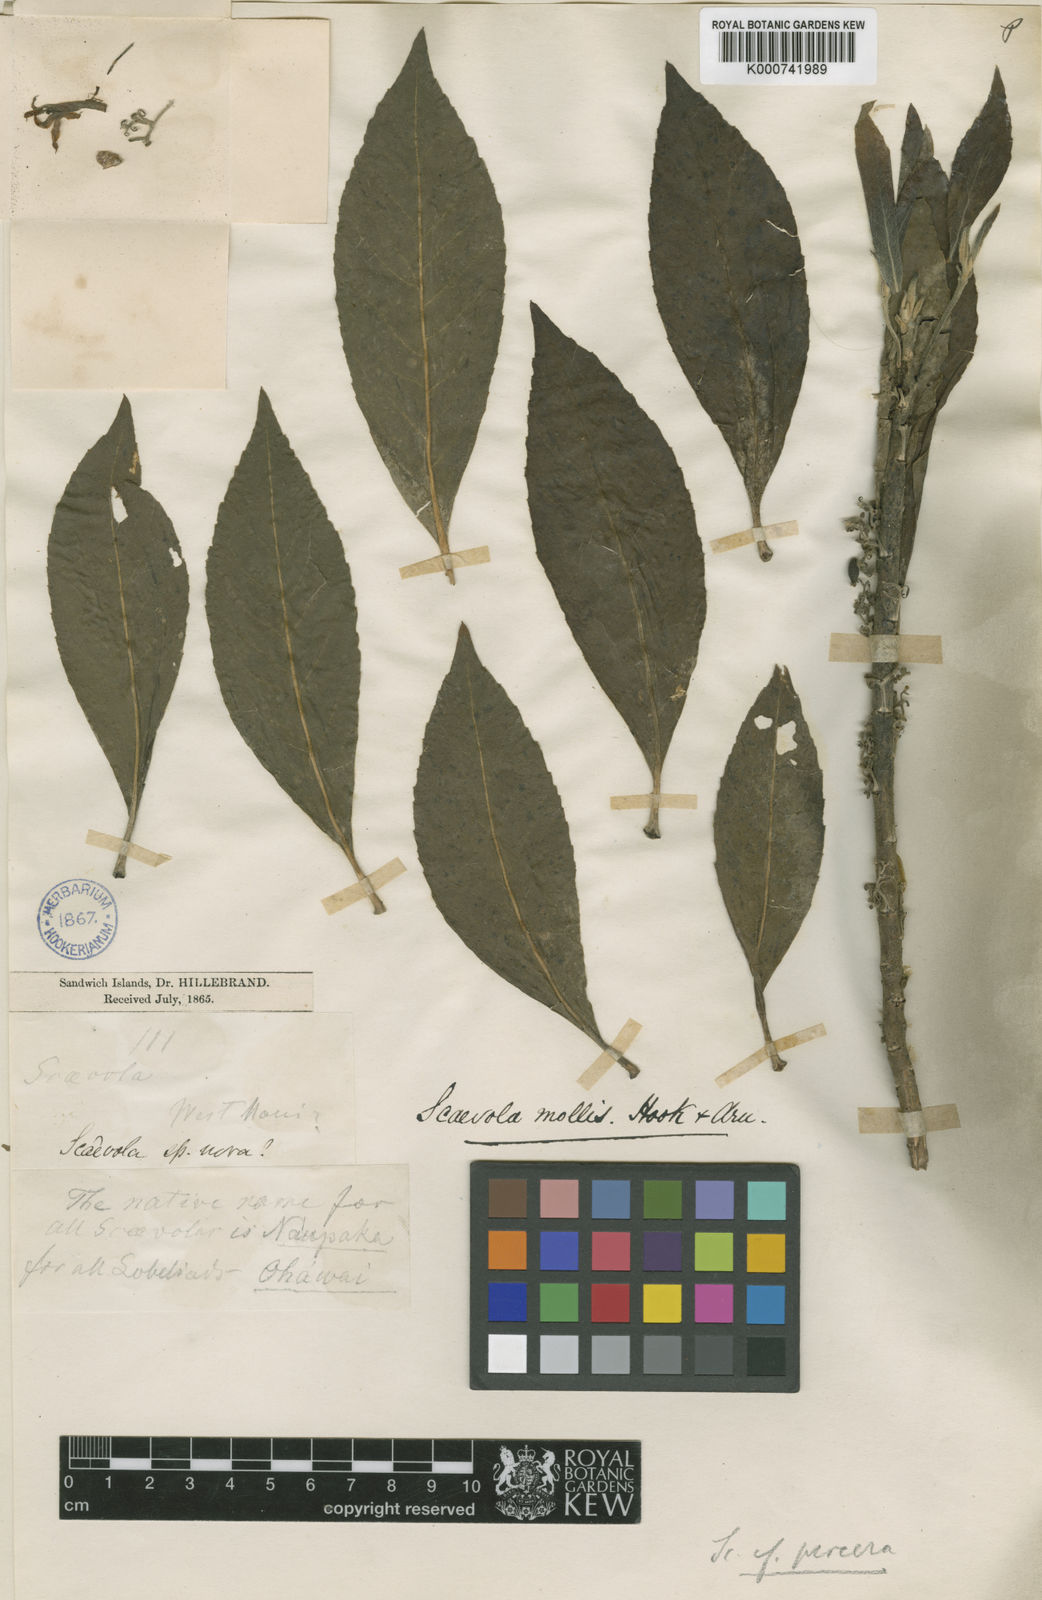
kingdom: Plantae
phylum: Tracheophyta
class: Magnoliopsida
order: Asterales
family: Goodeniaceae
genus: Scaevola
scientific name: Scaevola procera
